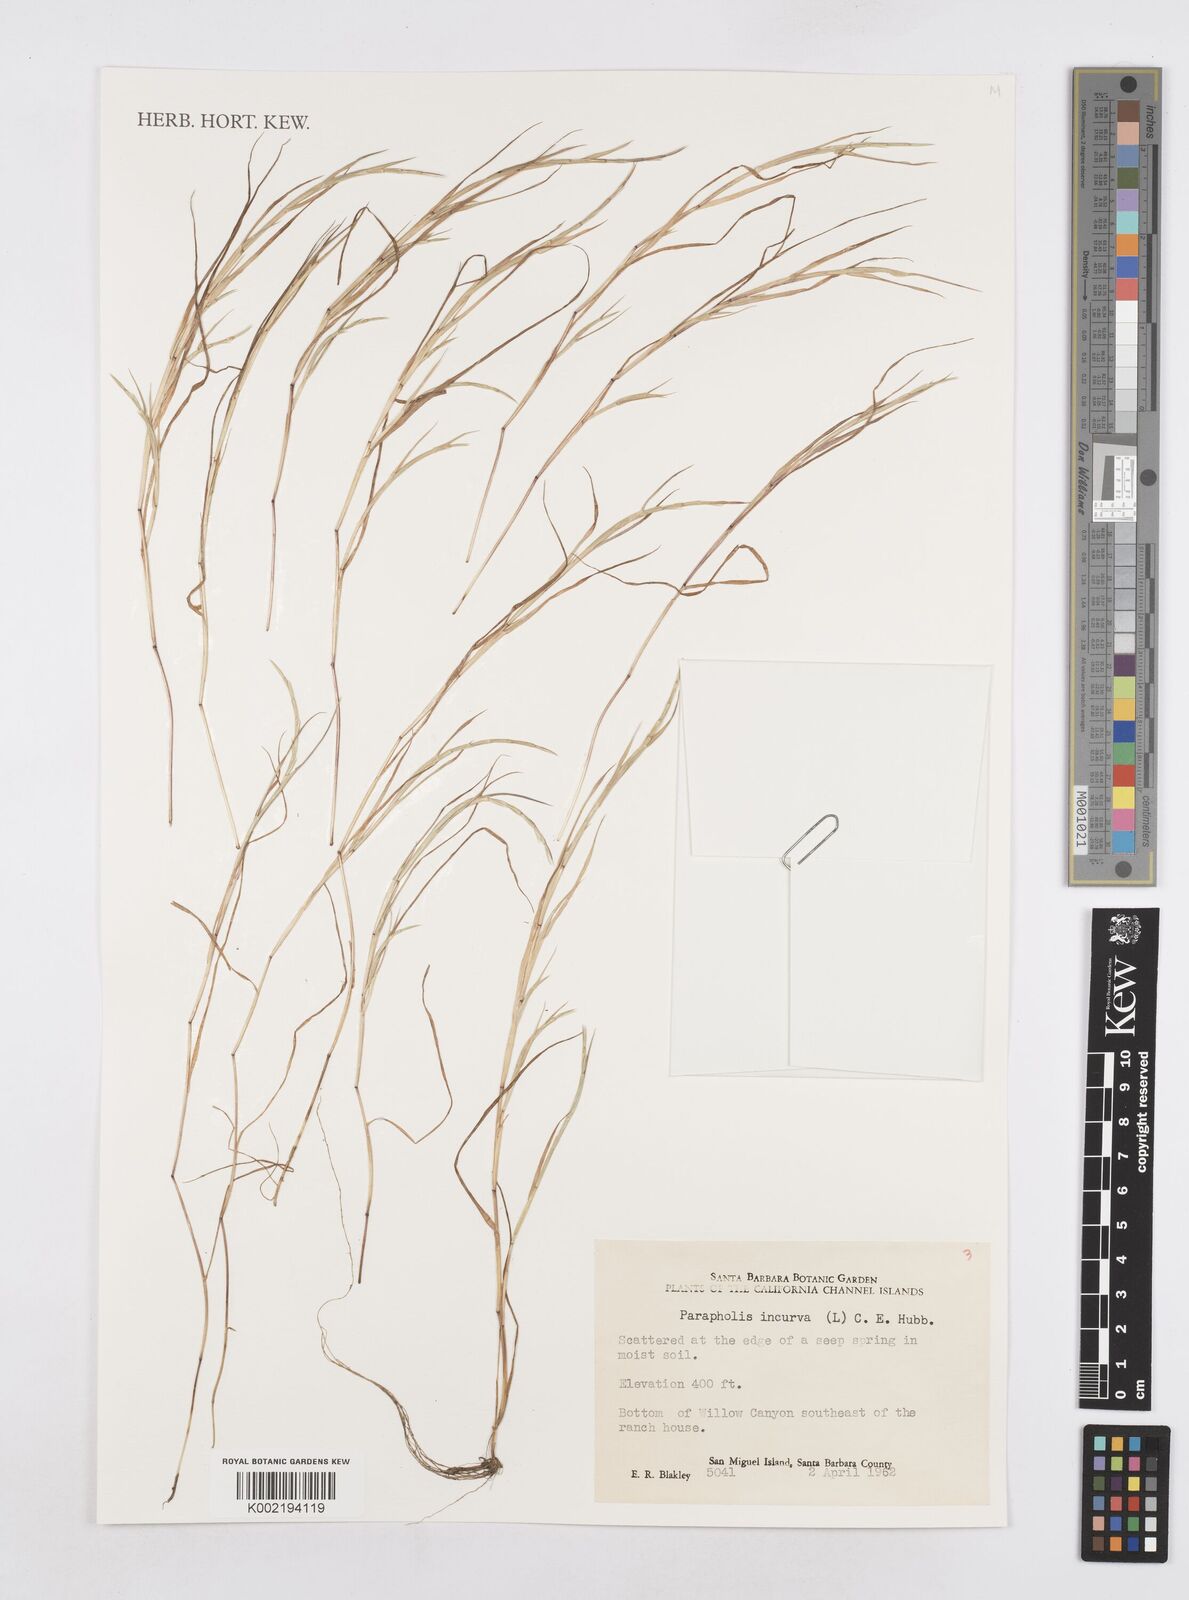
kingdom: Plantae
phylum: Tracheophyta
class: Liliopsida
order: Poales
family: Poaceae
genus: Parapholis
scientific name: Parapholis incurva
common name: Curved sicklegrass
